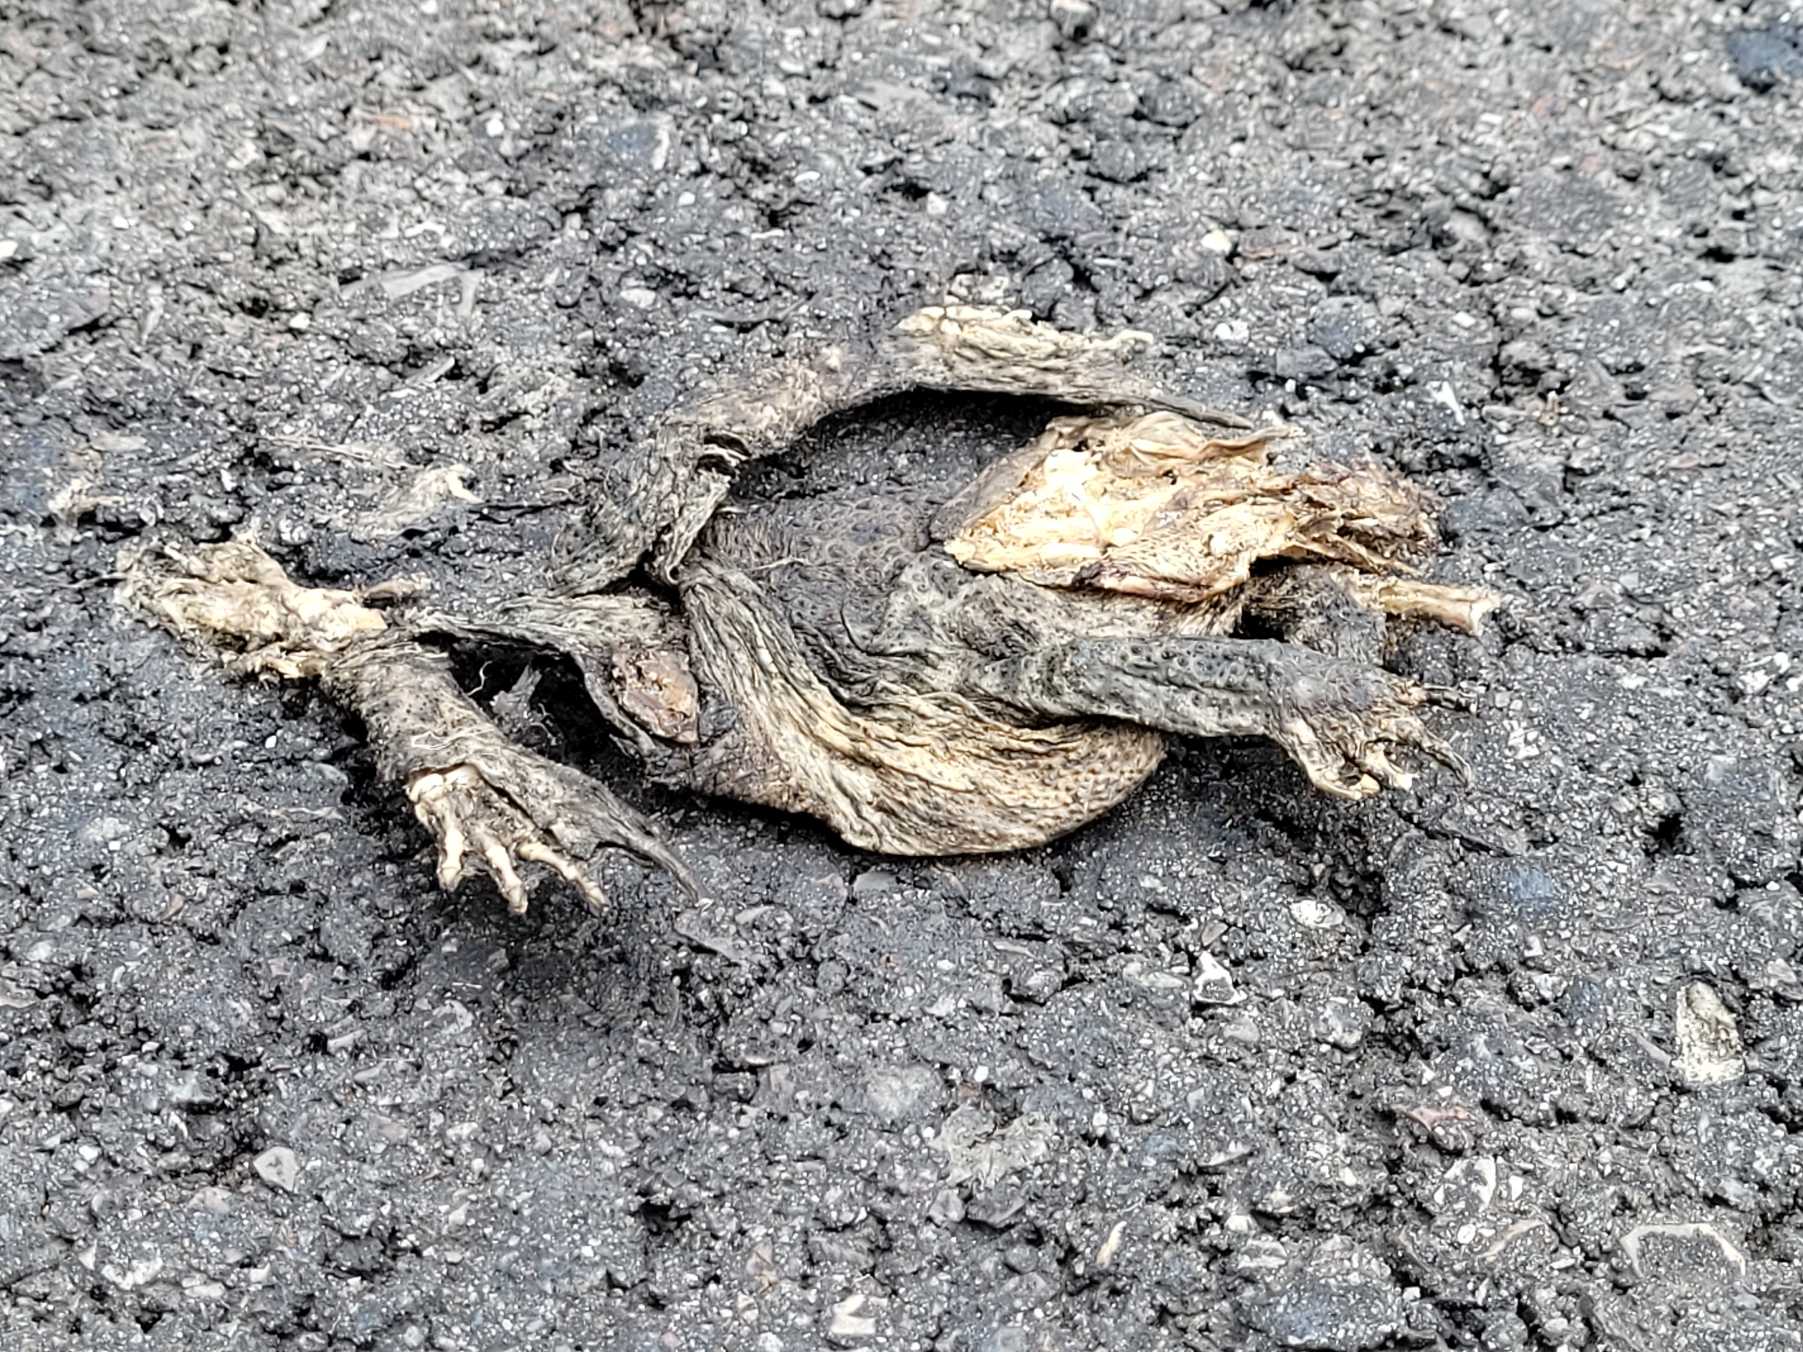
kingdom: Animalia
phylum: Chordata
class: Amphibia
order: Anura
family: Bufonidae
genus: Bufo
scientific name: Bufo bufo
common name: Skrubtudse
